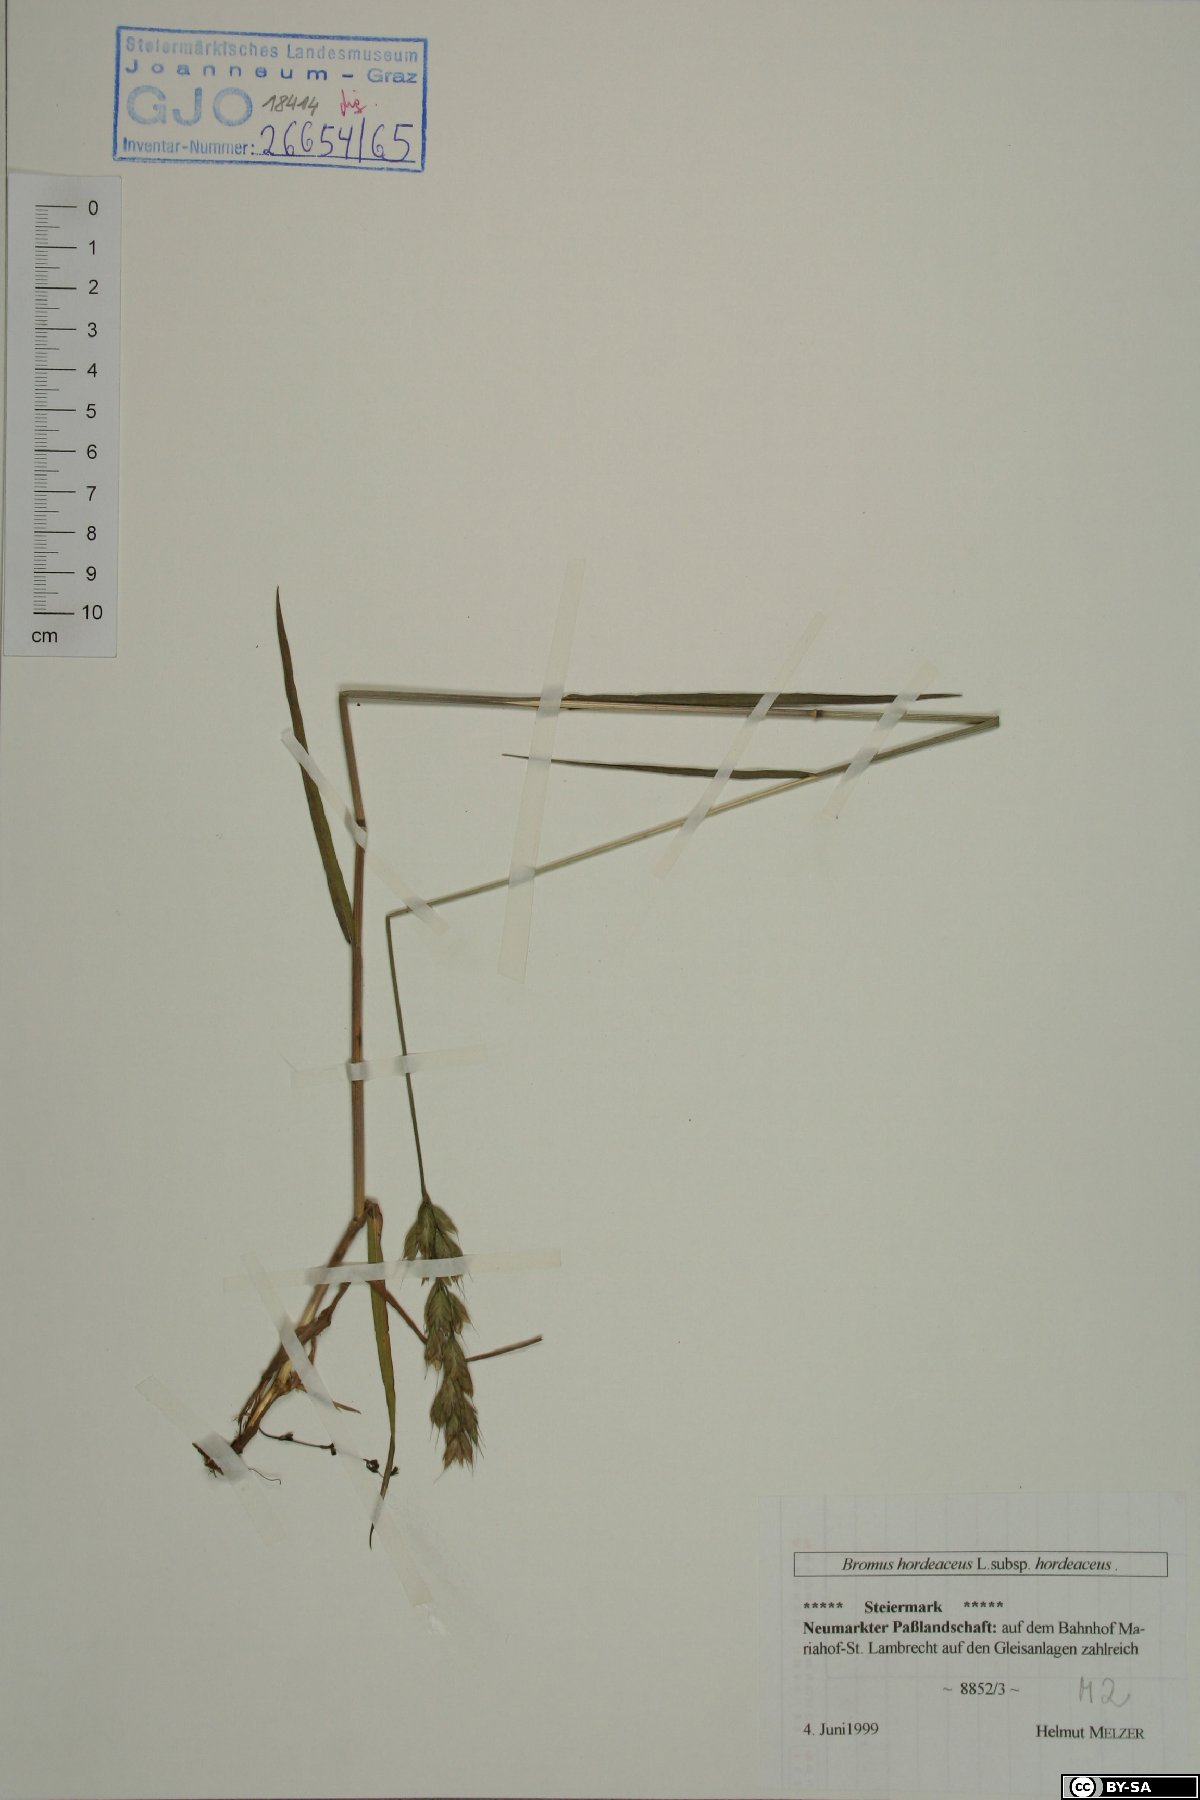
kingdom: Plantae
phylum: Tracheophyta
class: Liliopsida
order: Poales
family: Poaceae
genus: Bromus
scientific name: Bromus hordeaceus
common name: Soft brome
